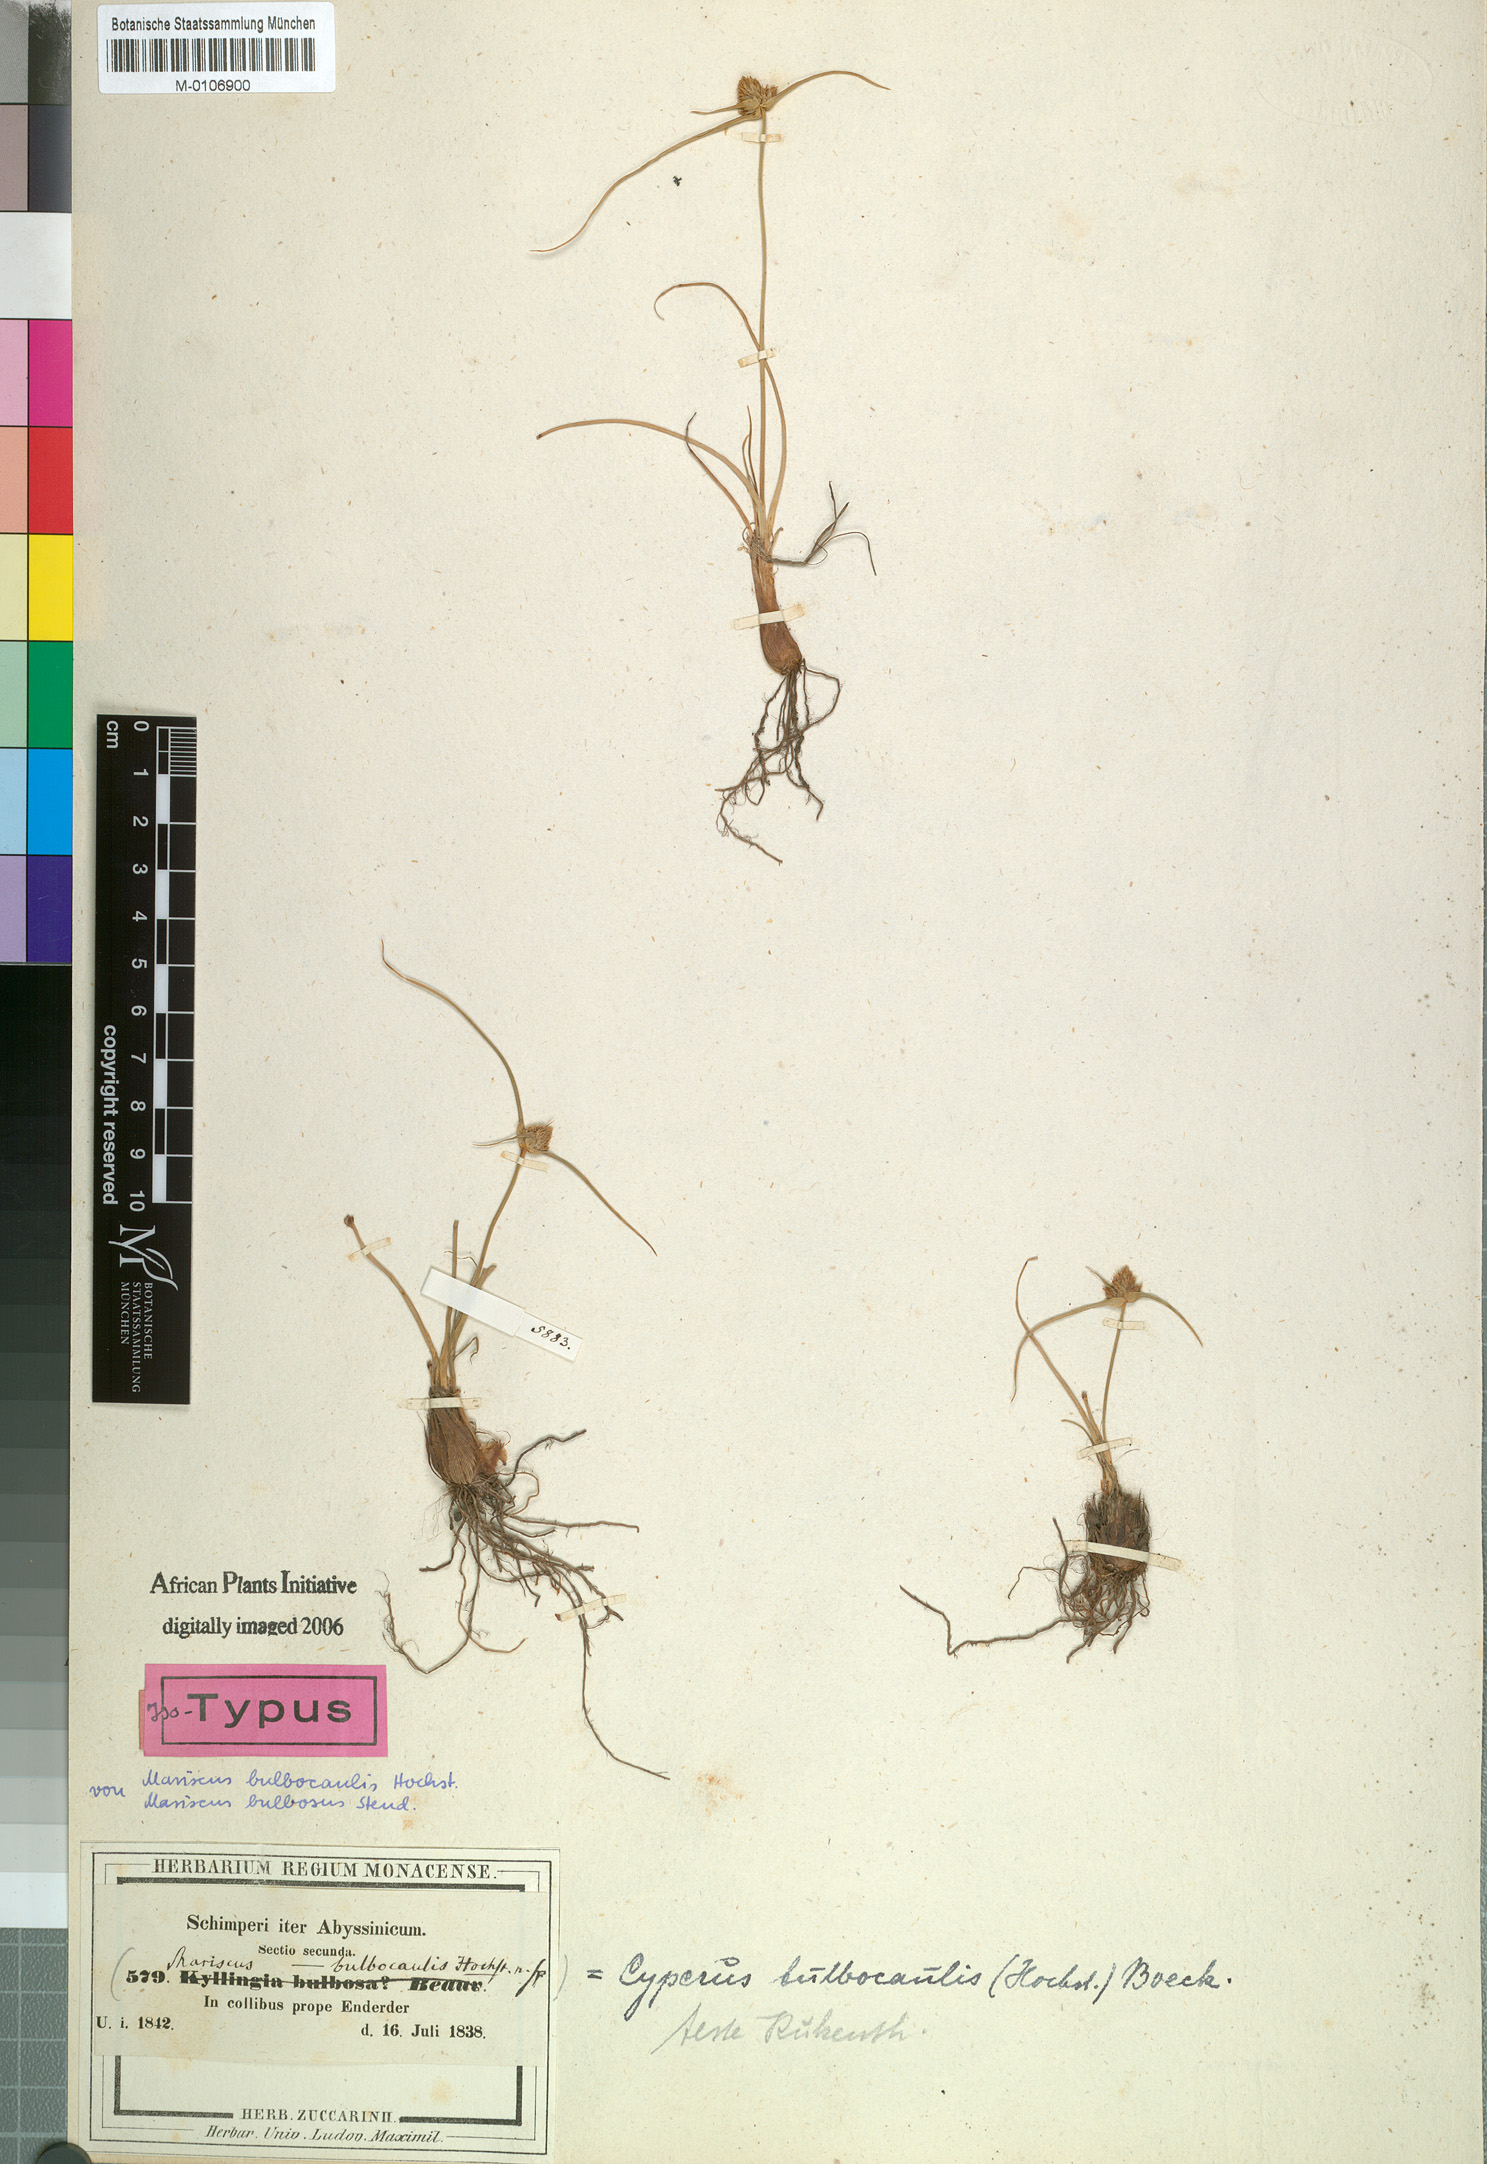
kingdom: Plantae
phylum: Tracheophyta
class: Liliopsida
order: Poales
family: Cyperaceae
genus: Cyperus
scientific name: Cyperus plateilema
